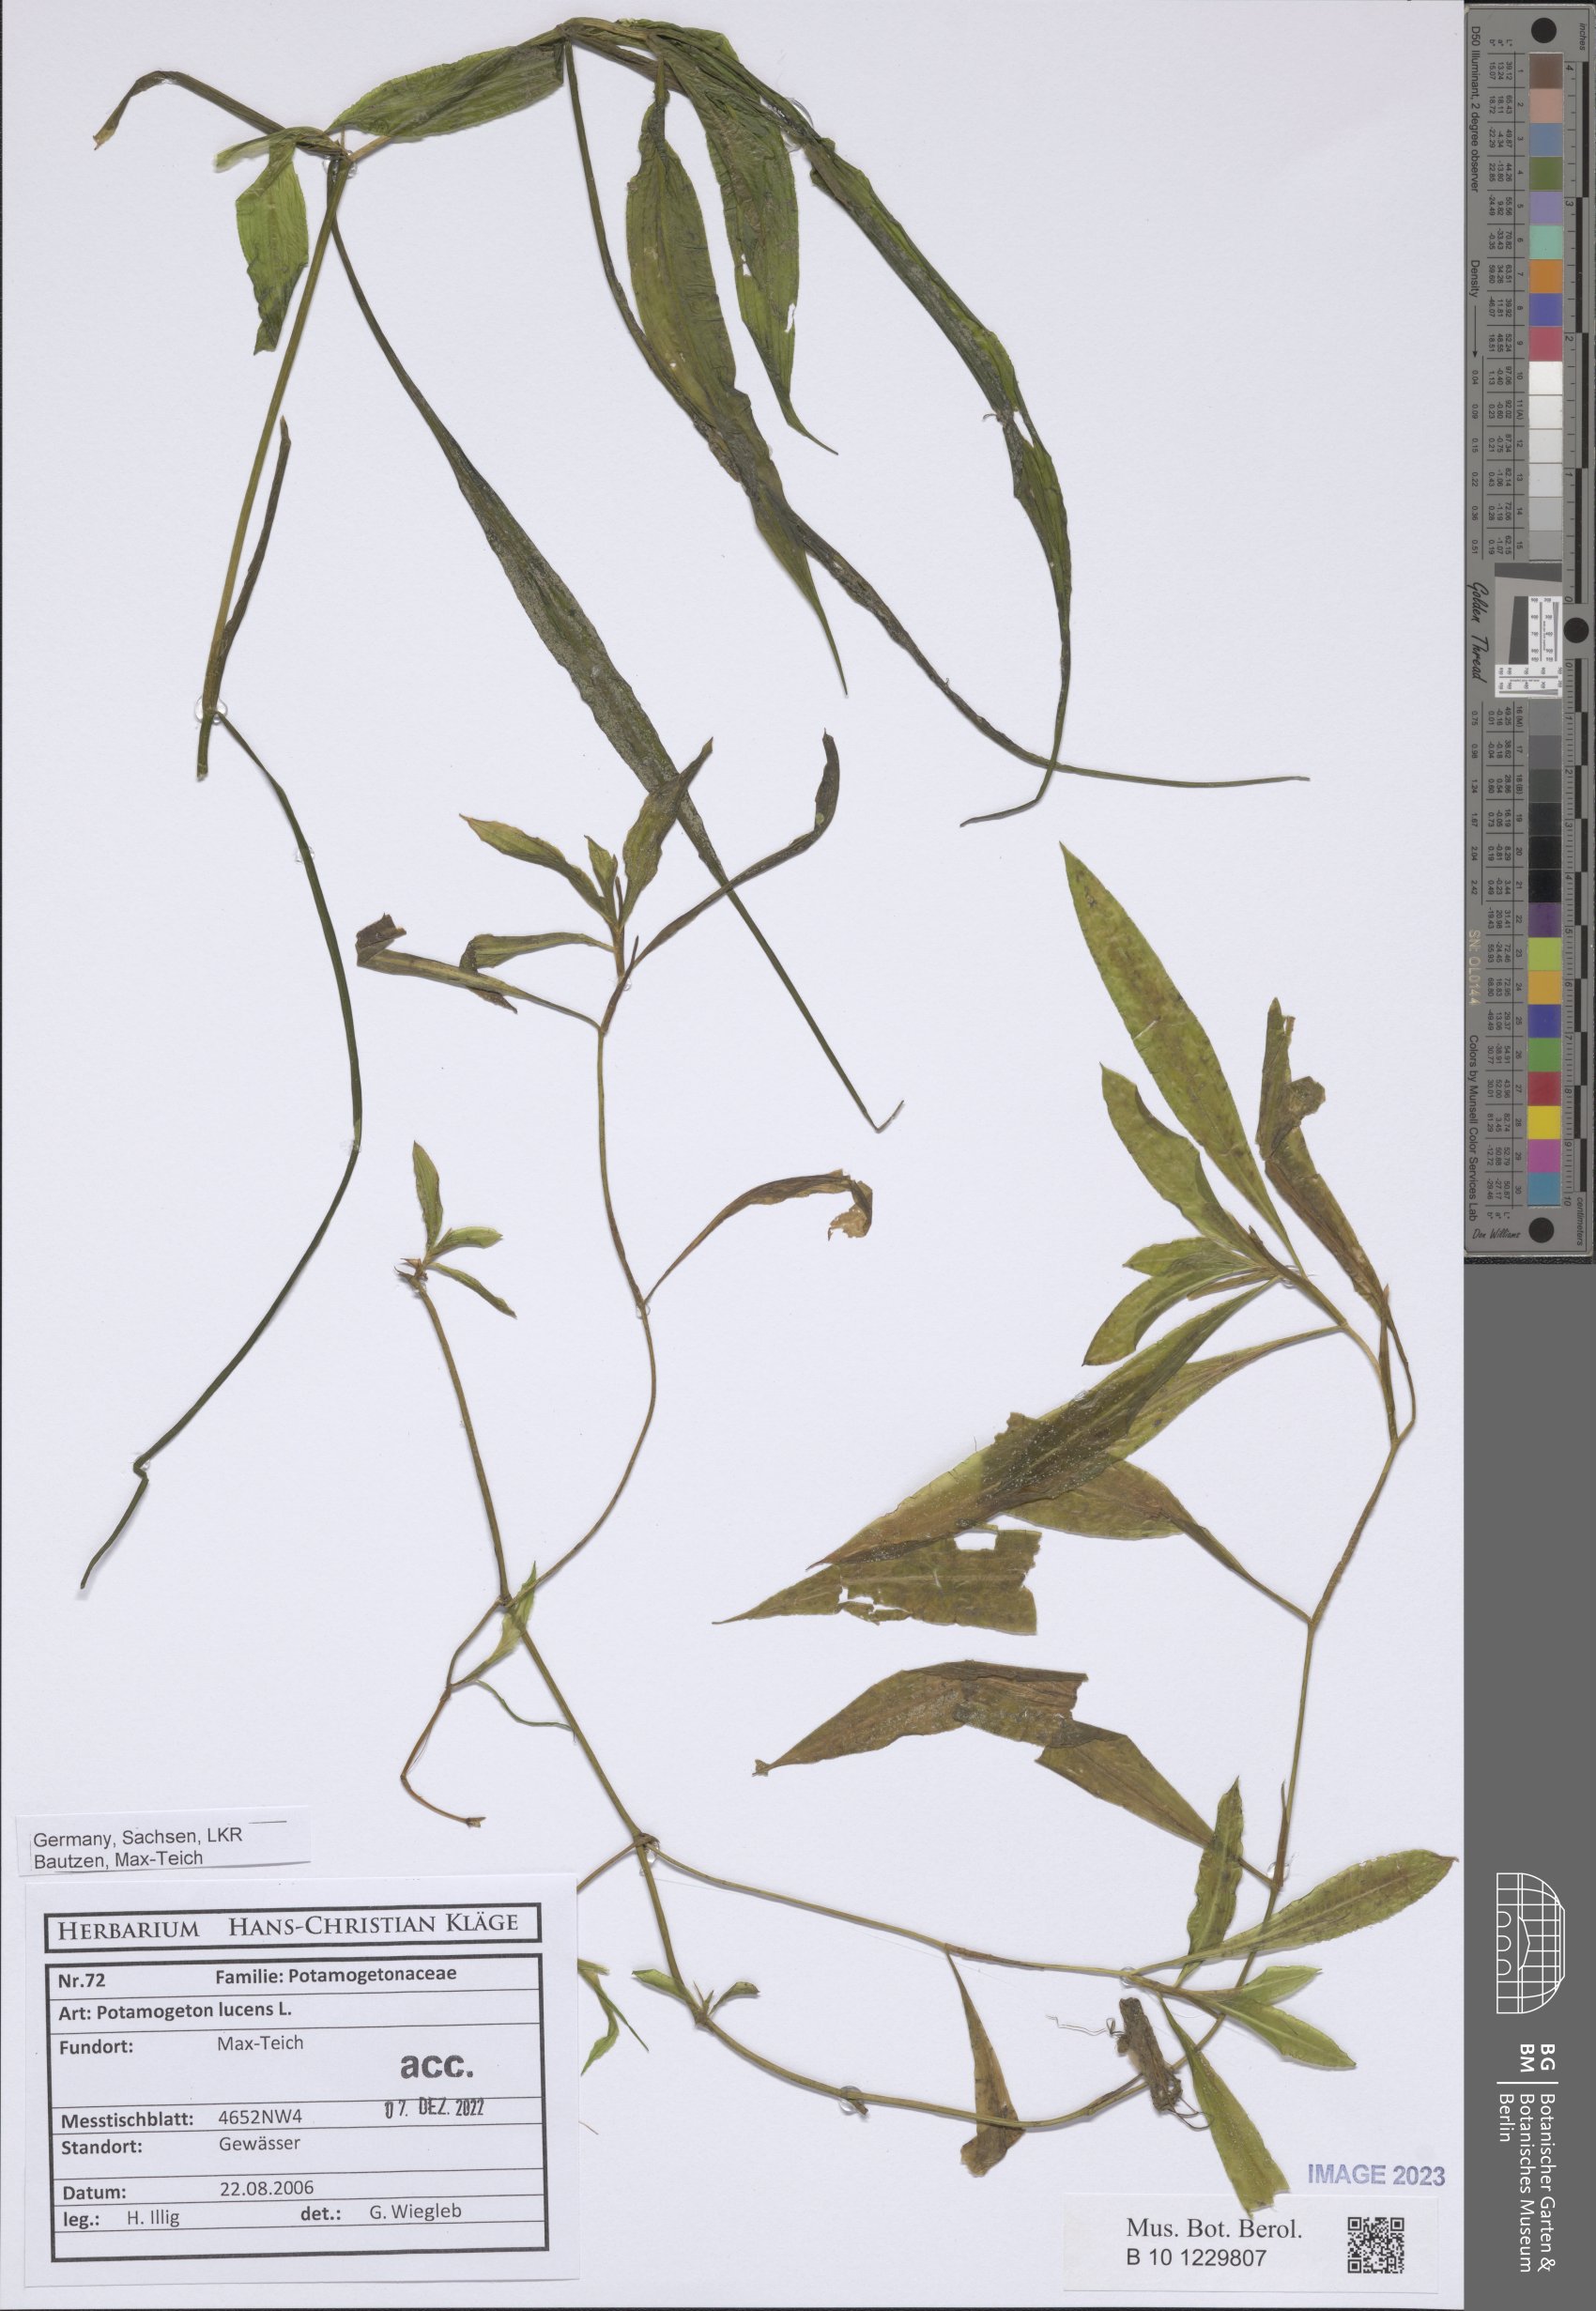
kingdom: Plantae
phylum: Tracheophyta
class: Liliopsida
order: Alismatales
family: Potamogetonaceae
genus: Potamogeton
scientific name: Potamogeton lucens
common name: Shining pondweed
